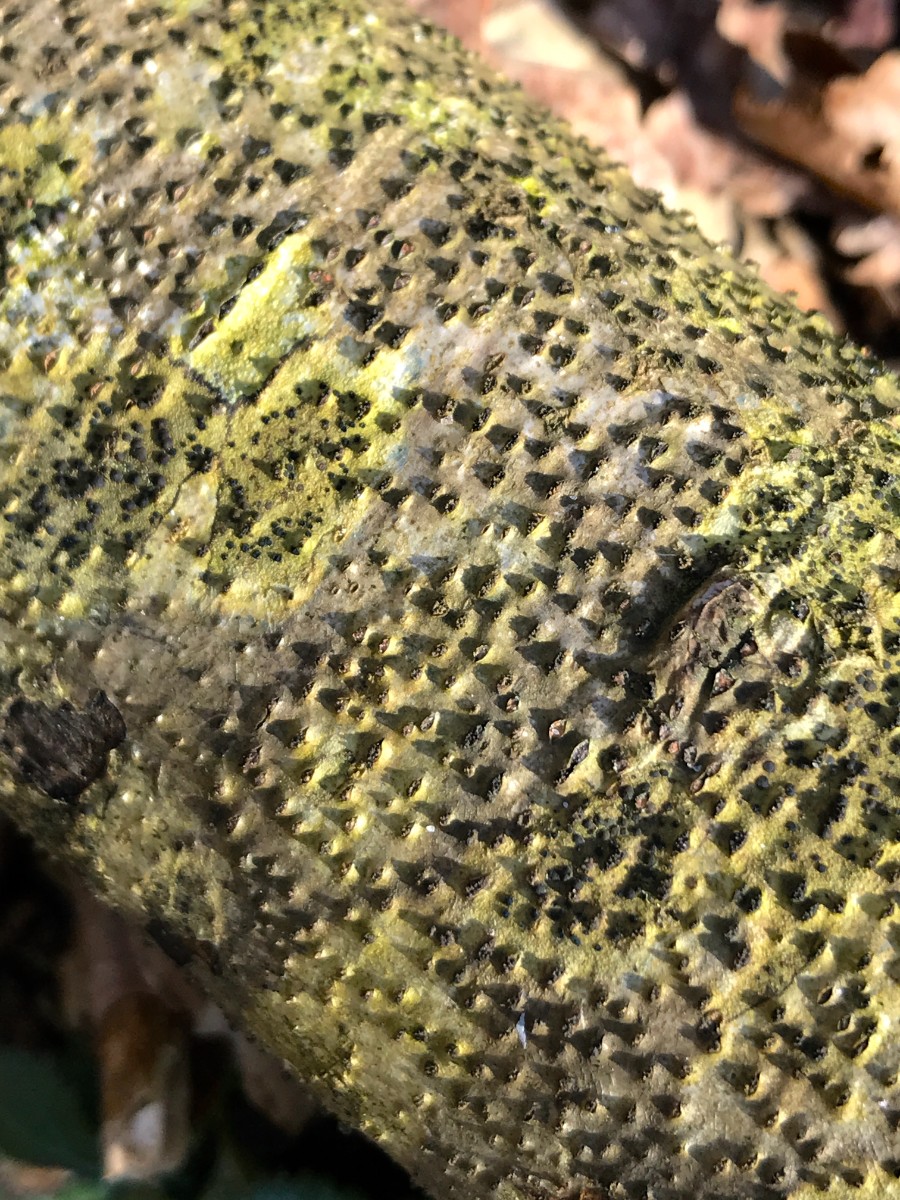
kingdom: Fungi
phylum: Ascomycota
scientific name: Ascomycota
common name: sæksvampe
